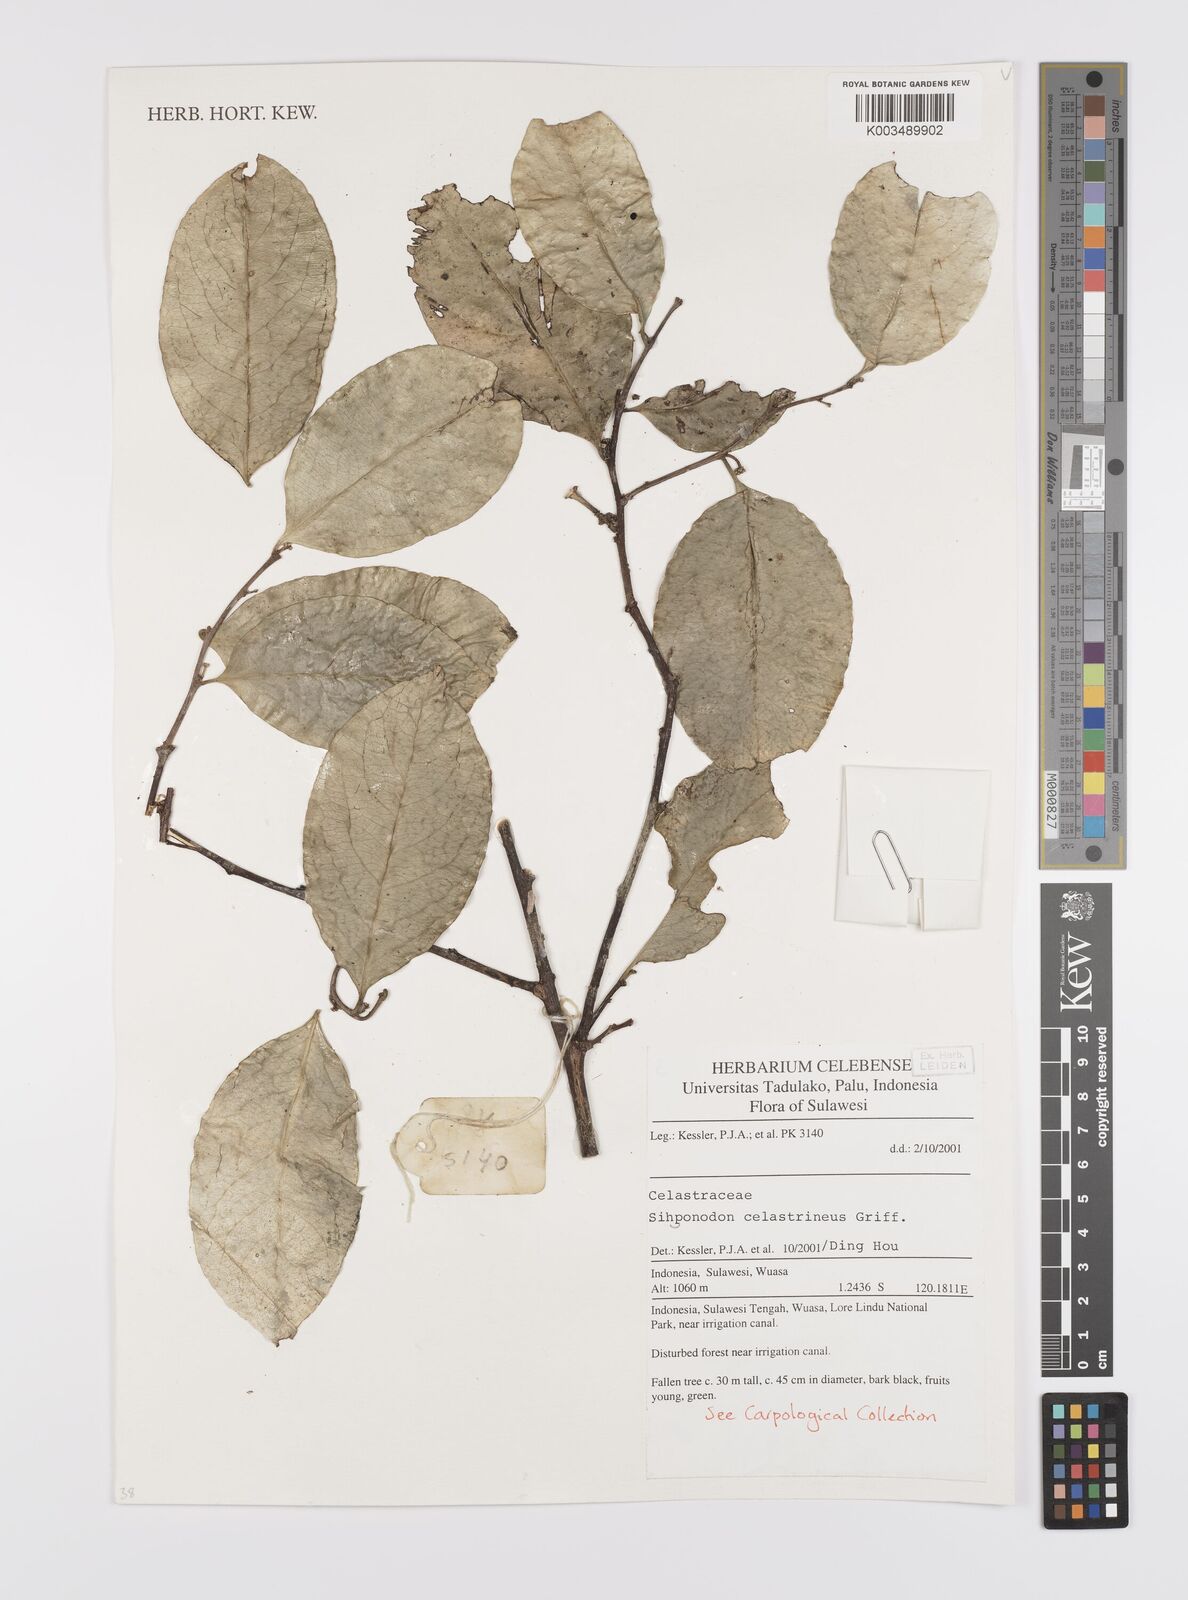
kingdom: Plantae
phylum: Tracheophyta
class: Magnoliopsida
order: Celastrales
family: Celastraceae
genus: Siphonodon
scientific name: Siphonodon celastrineus
